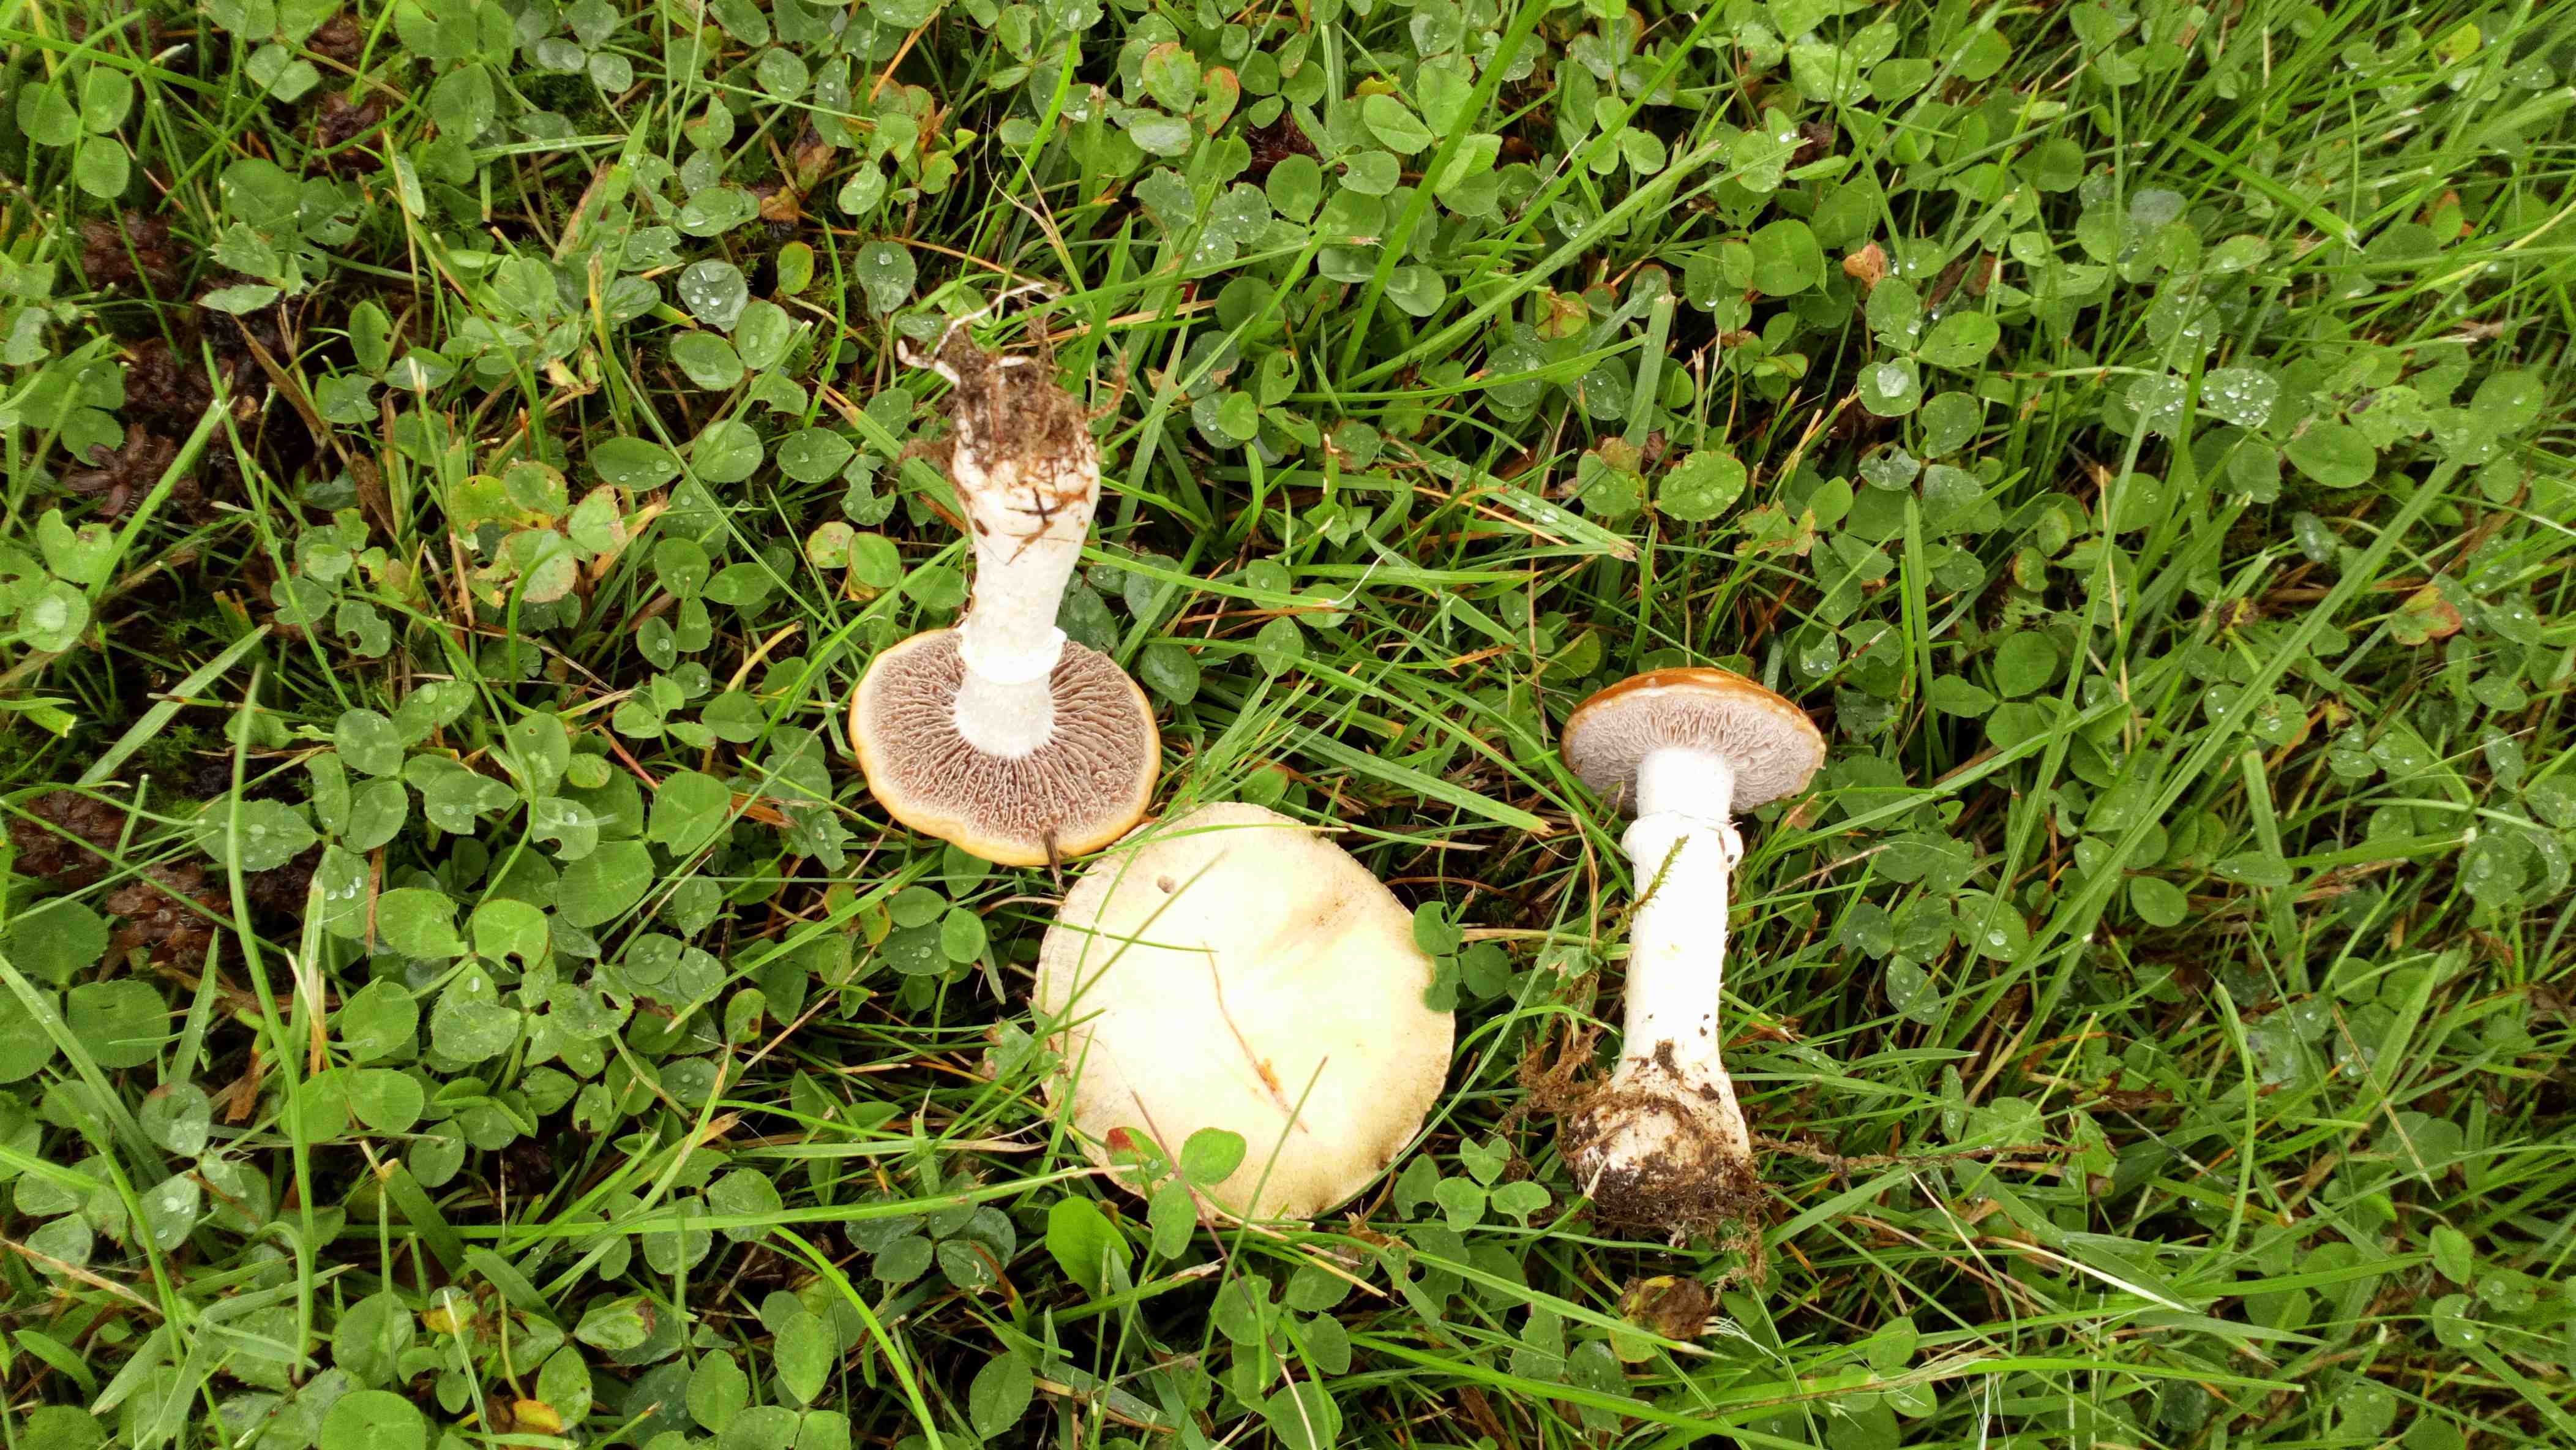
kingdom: Fungi
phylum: Basidiomycota
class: Agaricomycetes
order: Agaricales
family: Hymenogastraceae
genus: Psilocybe
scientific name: Psilocybe coronilla
